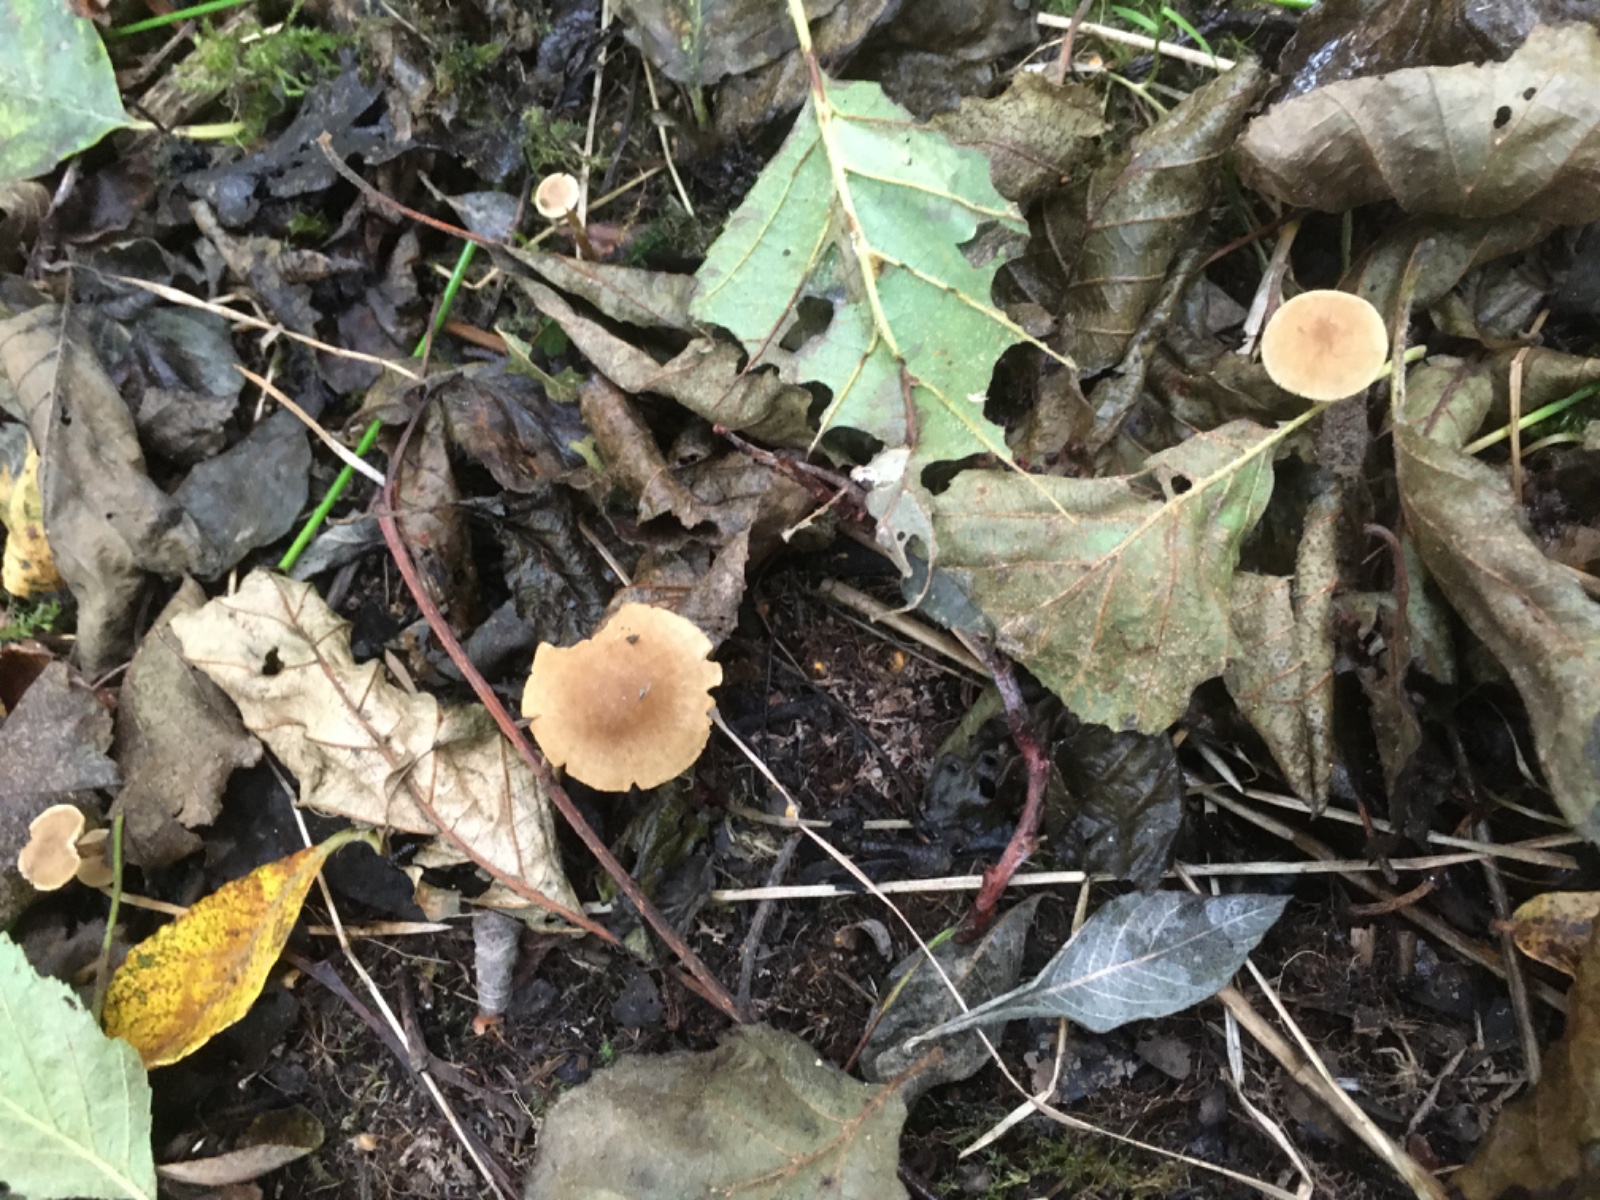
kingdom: Fungi
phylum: Basidiomycota
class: Agaricomycetes
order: Agaricales
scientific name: Agaricales
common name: champignonordenen
